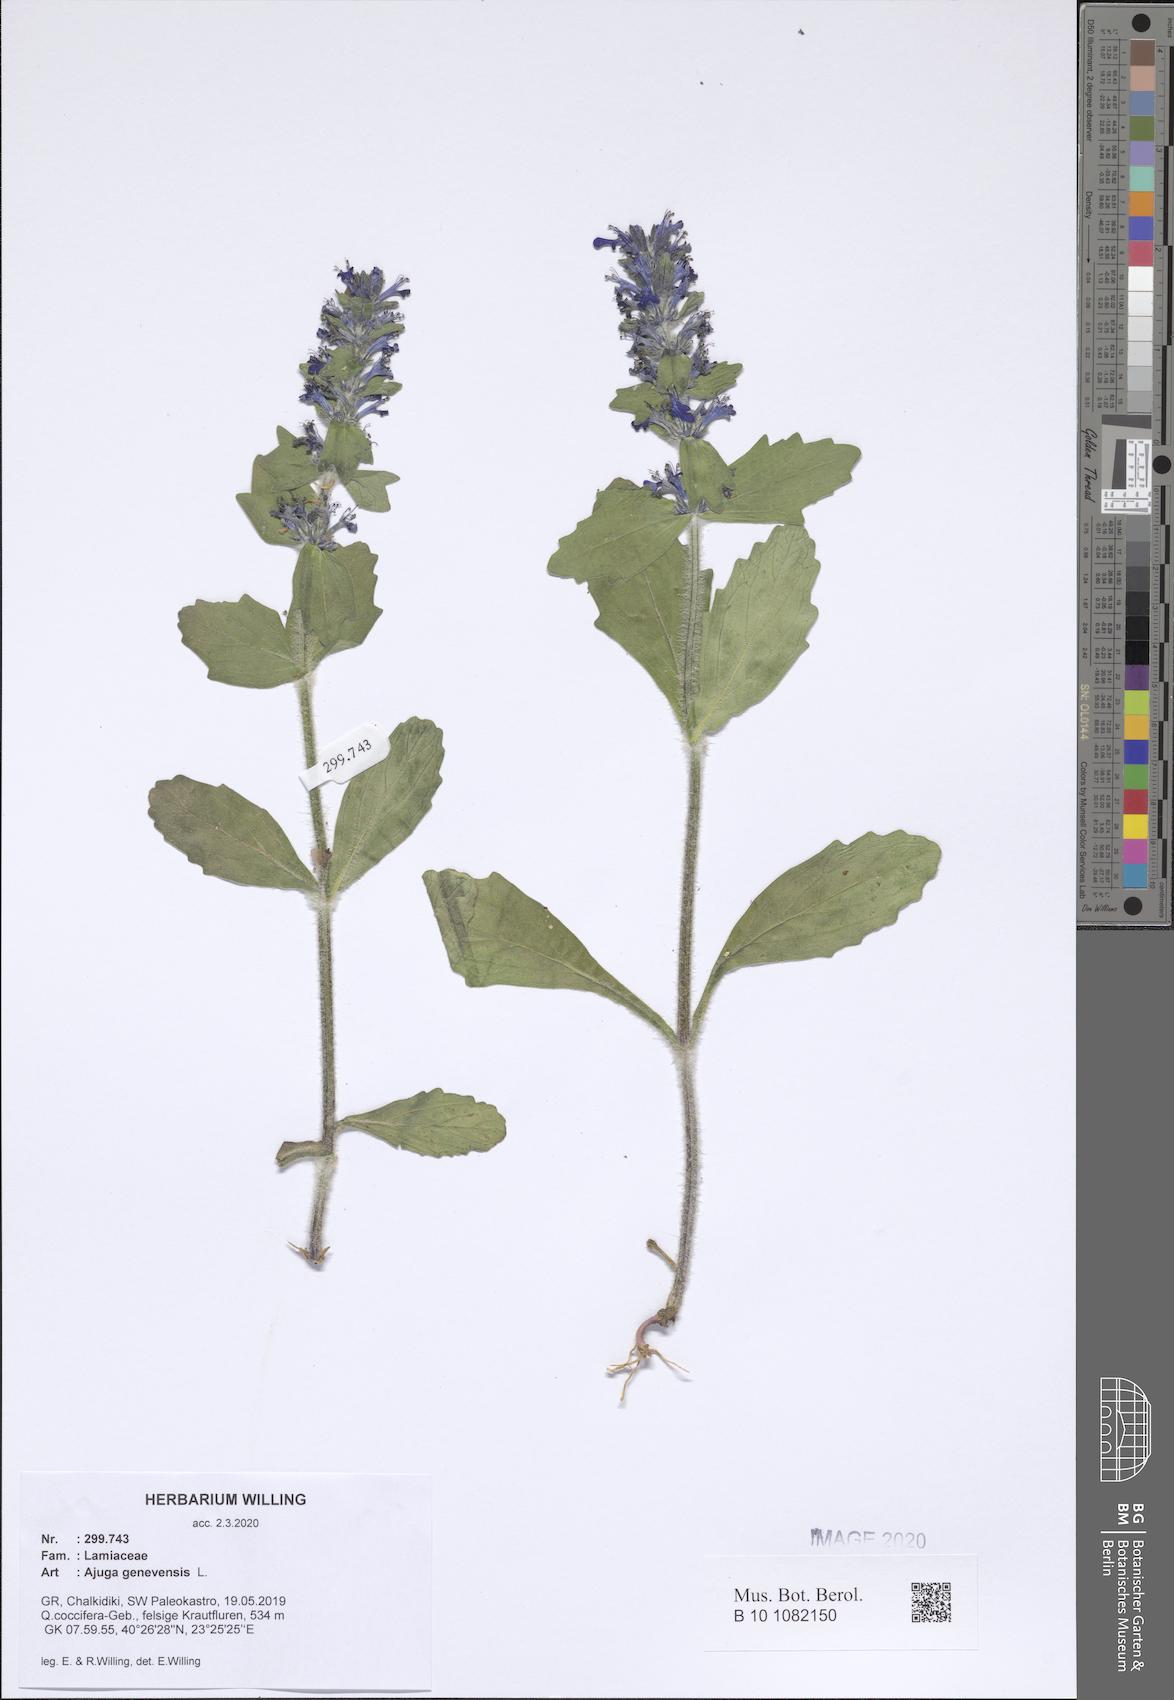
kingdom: Plantae
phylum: Tracheophyta
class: Magnoliopsida
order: Lamiales
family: Lamiaceae
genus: Ajuga
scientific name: Ajuga genevensis
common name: Blue bugle
